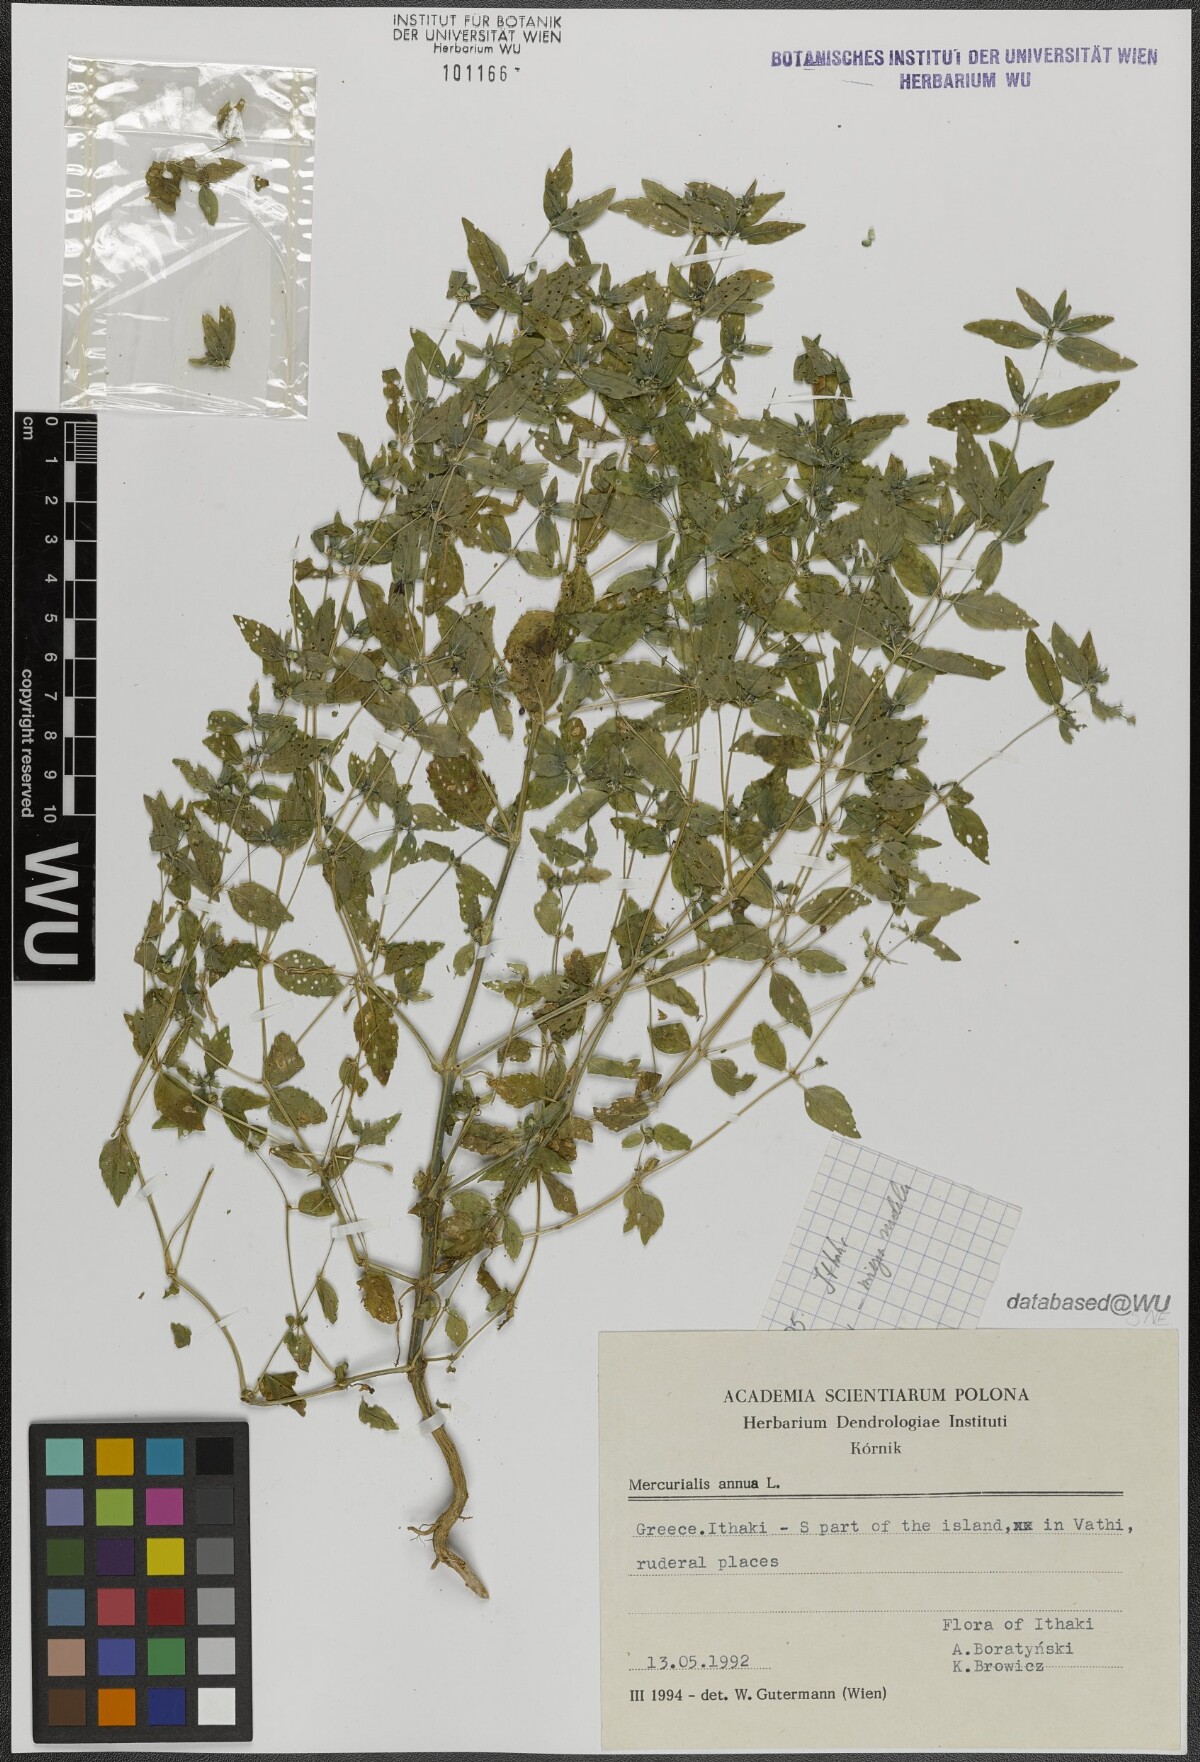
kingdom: Plantae
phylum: Tracheophyta
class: Magnoliopsida
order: Malpighiales
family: Euphorbiaceae
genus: Mercurialis
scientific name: Mercurialis annua
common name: Annual mercury
